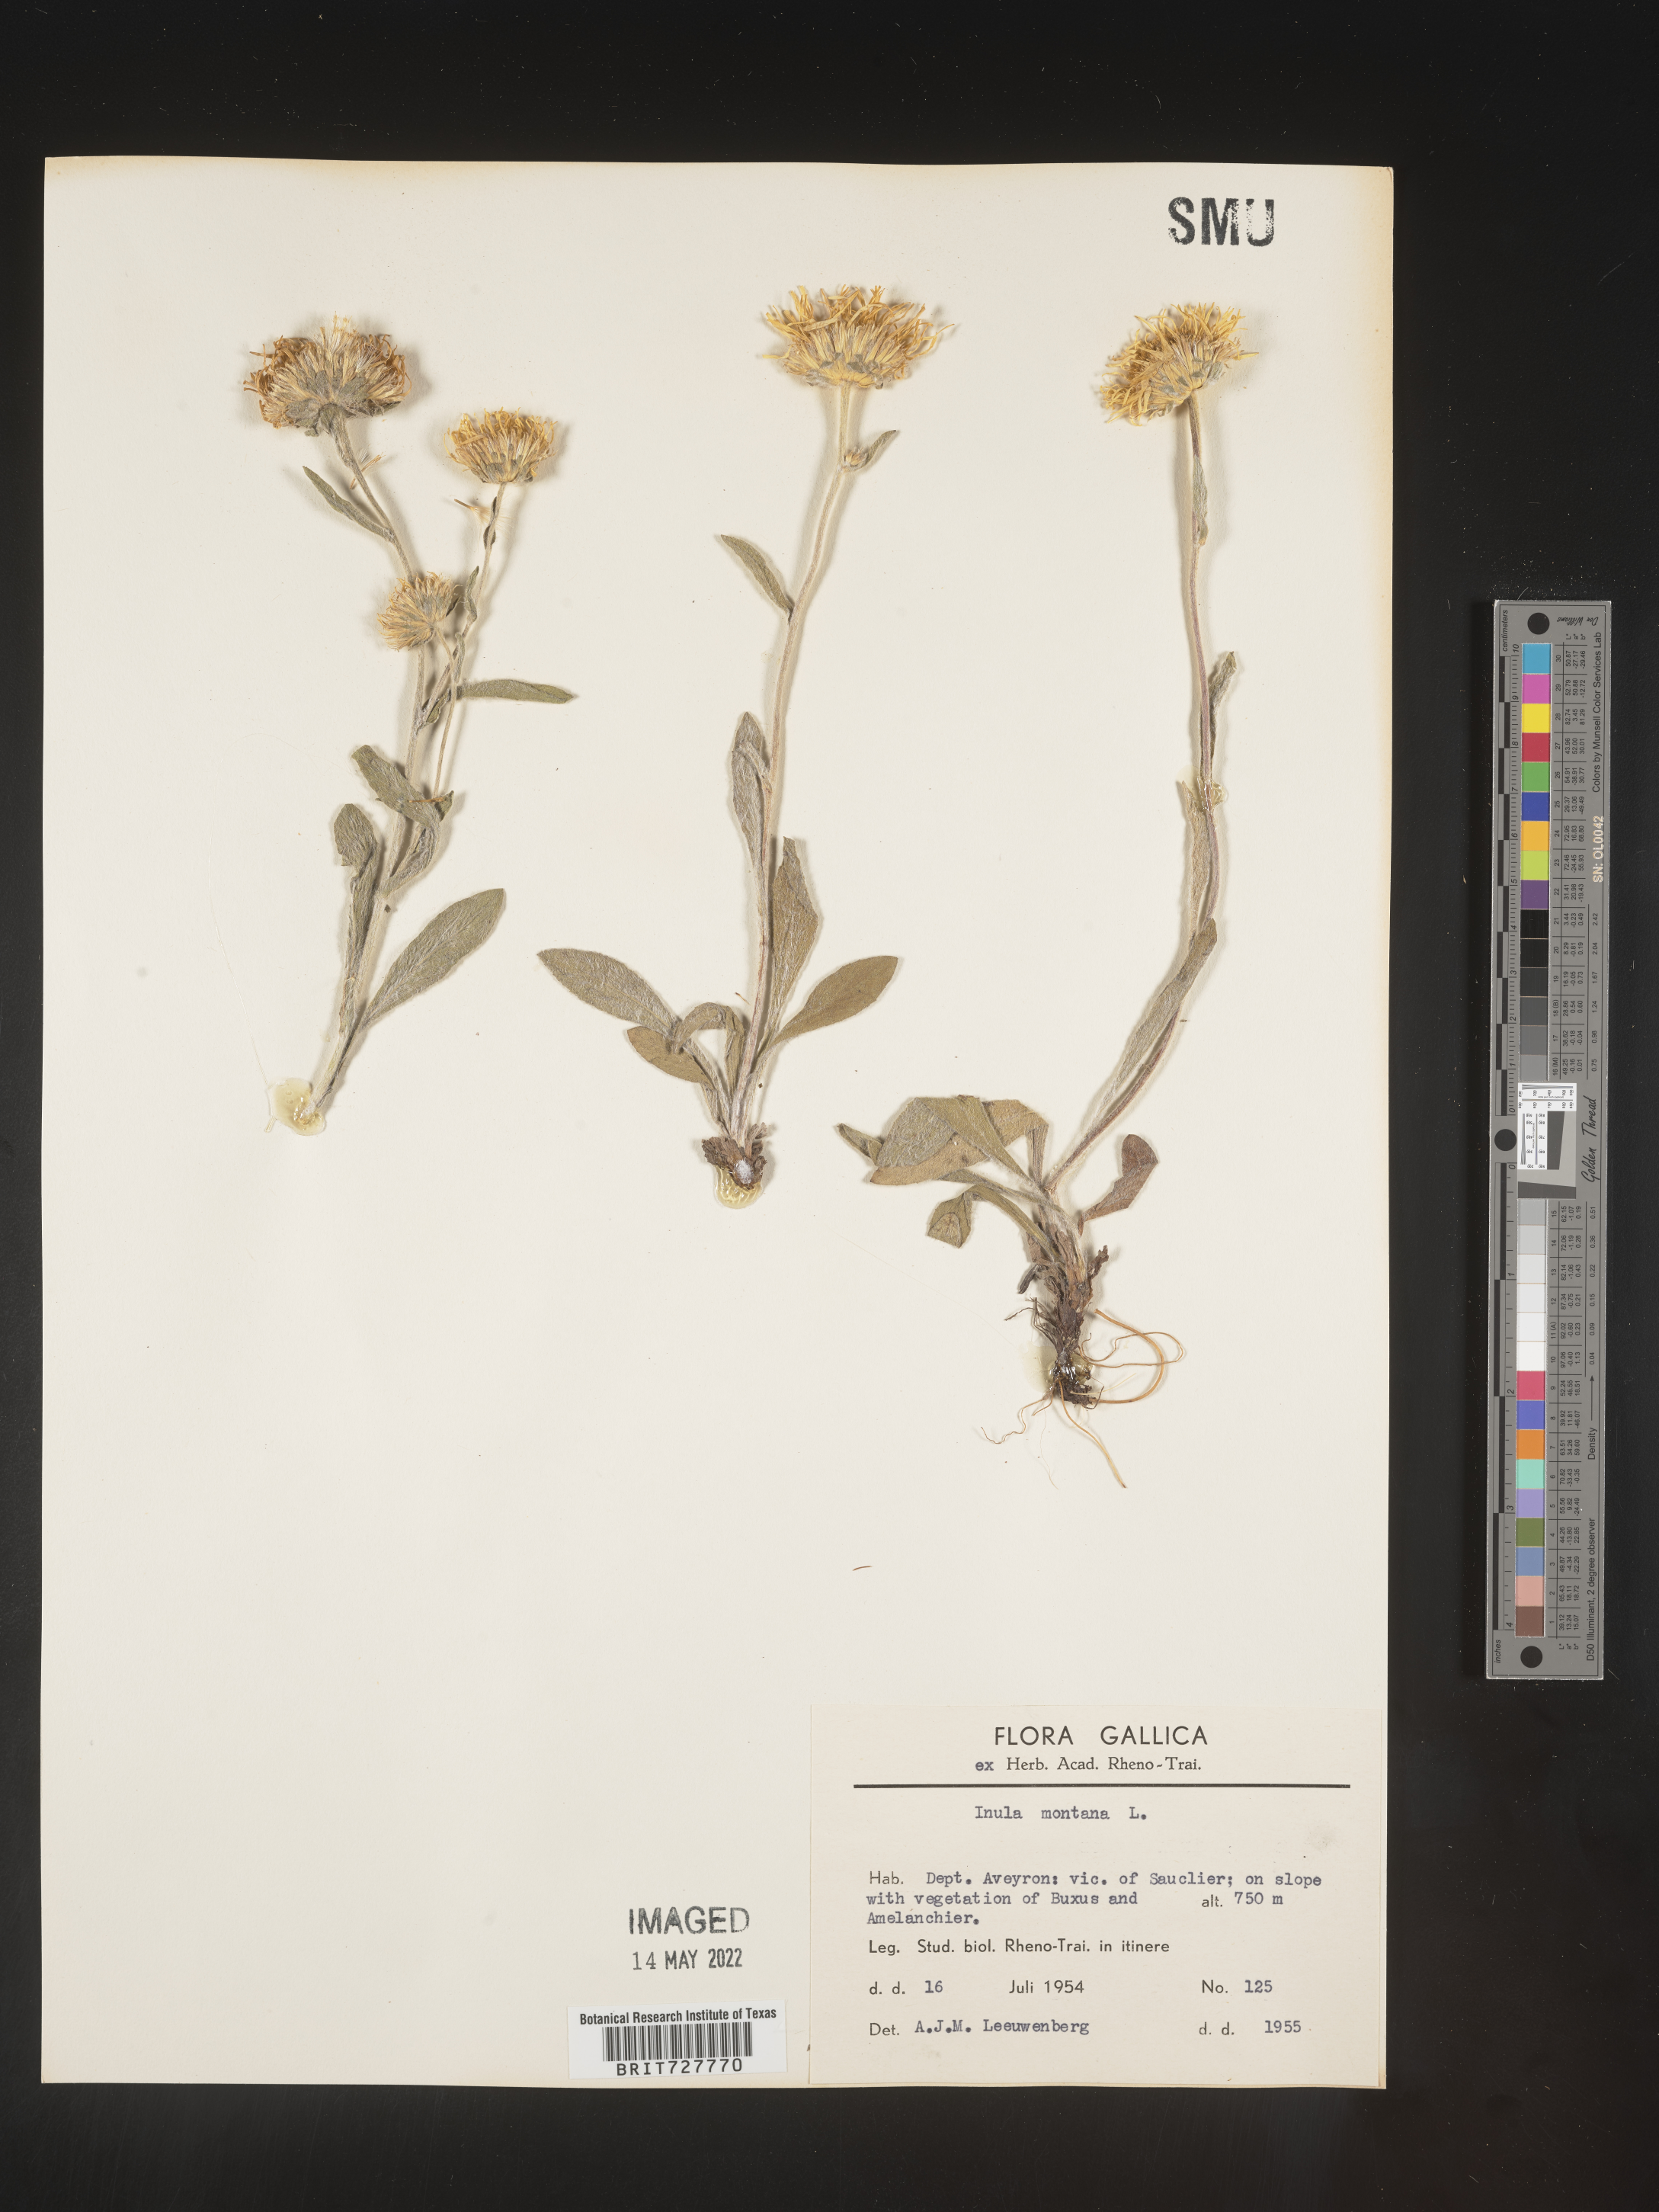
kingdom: Plantae
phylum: Tracheophyta
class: Magnoliopsida
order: Asterales
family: Asteraceae
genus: Inula
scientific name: Inula
